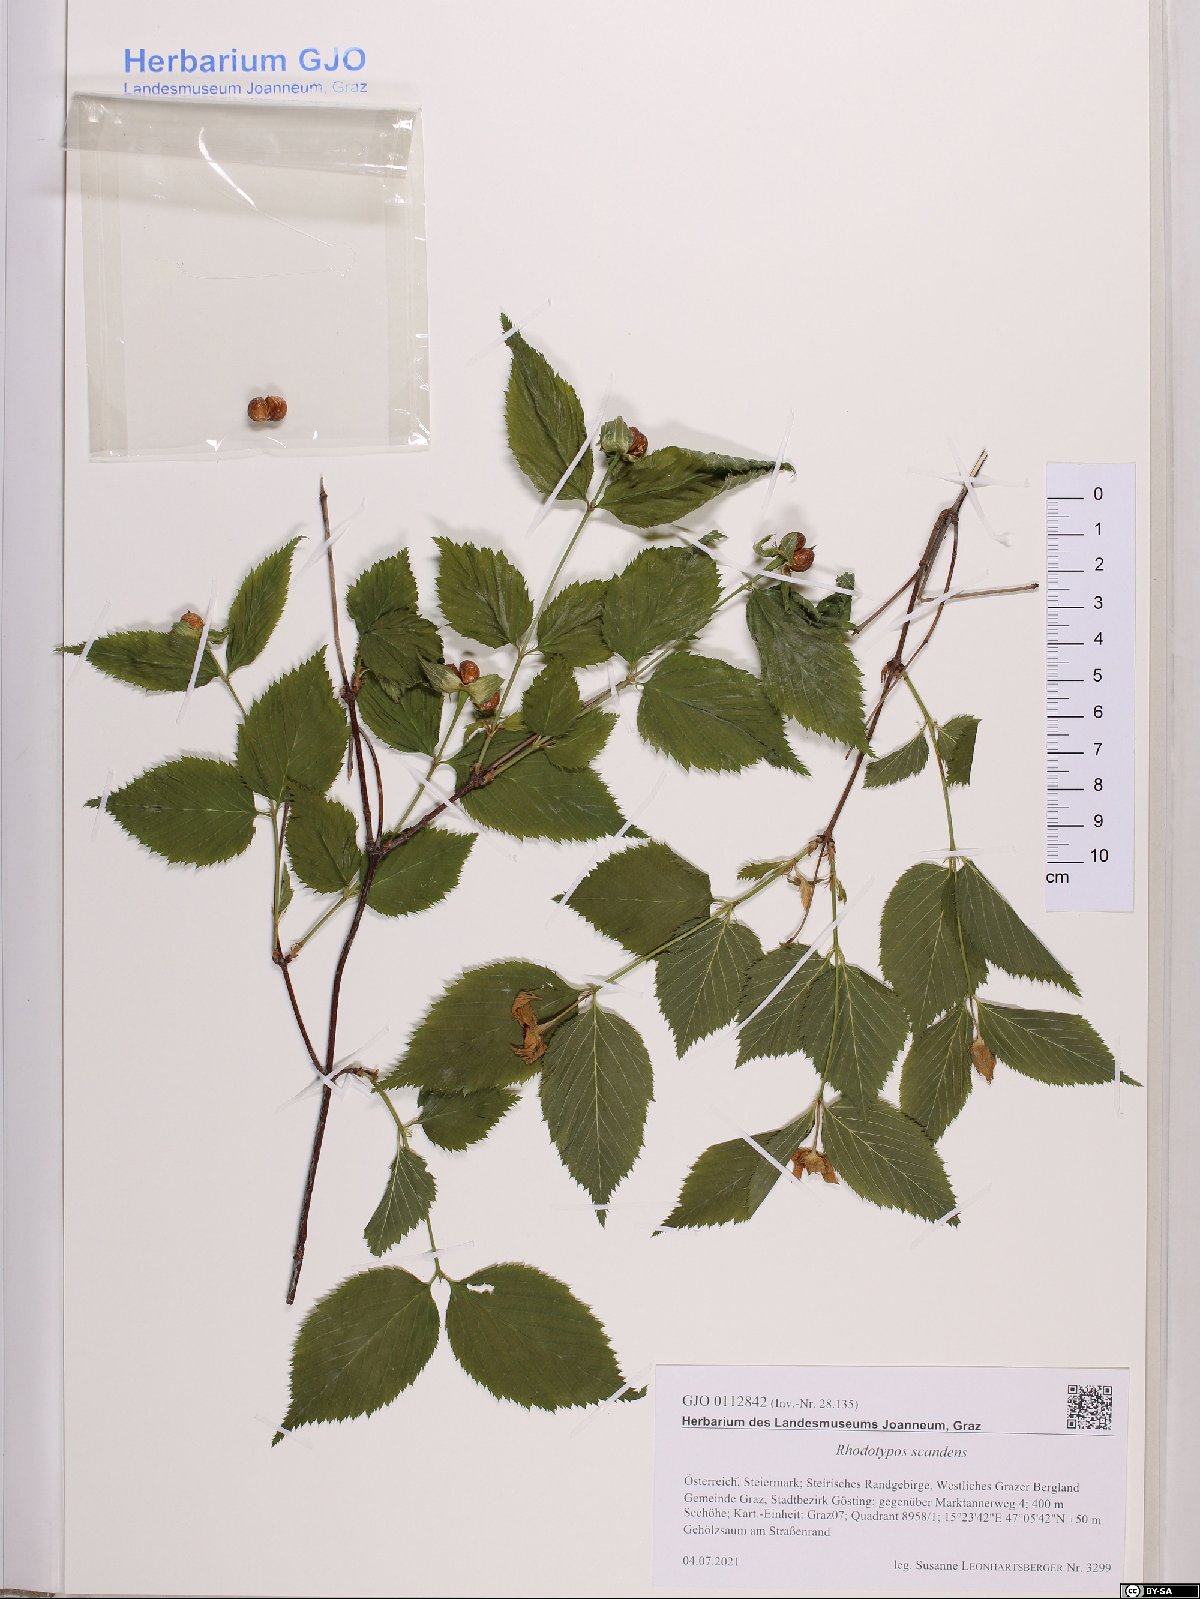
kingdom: Plantae
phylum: Tracheophyta
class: Magnoliopsida
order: Rosales
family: Rosaceae
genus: Rhodotypos
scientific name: Rhodotypos scandens
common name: Jetbead
